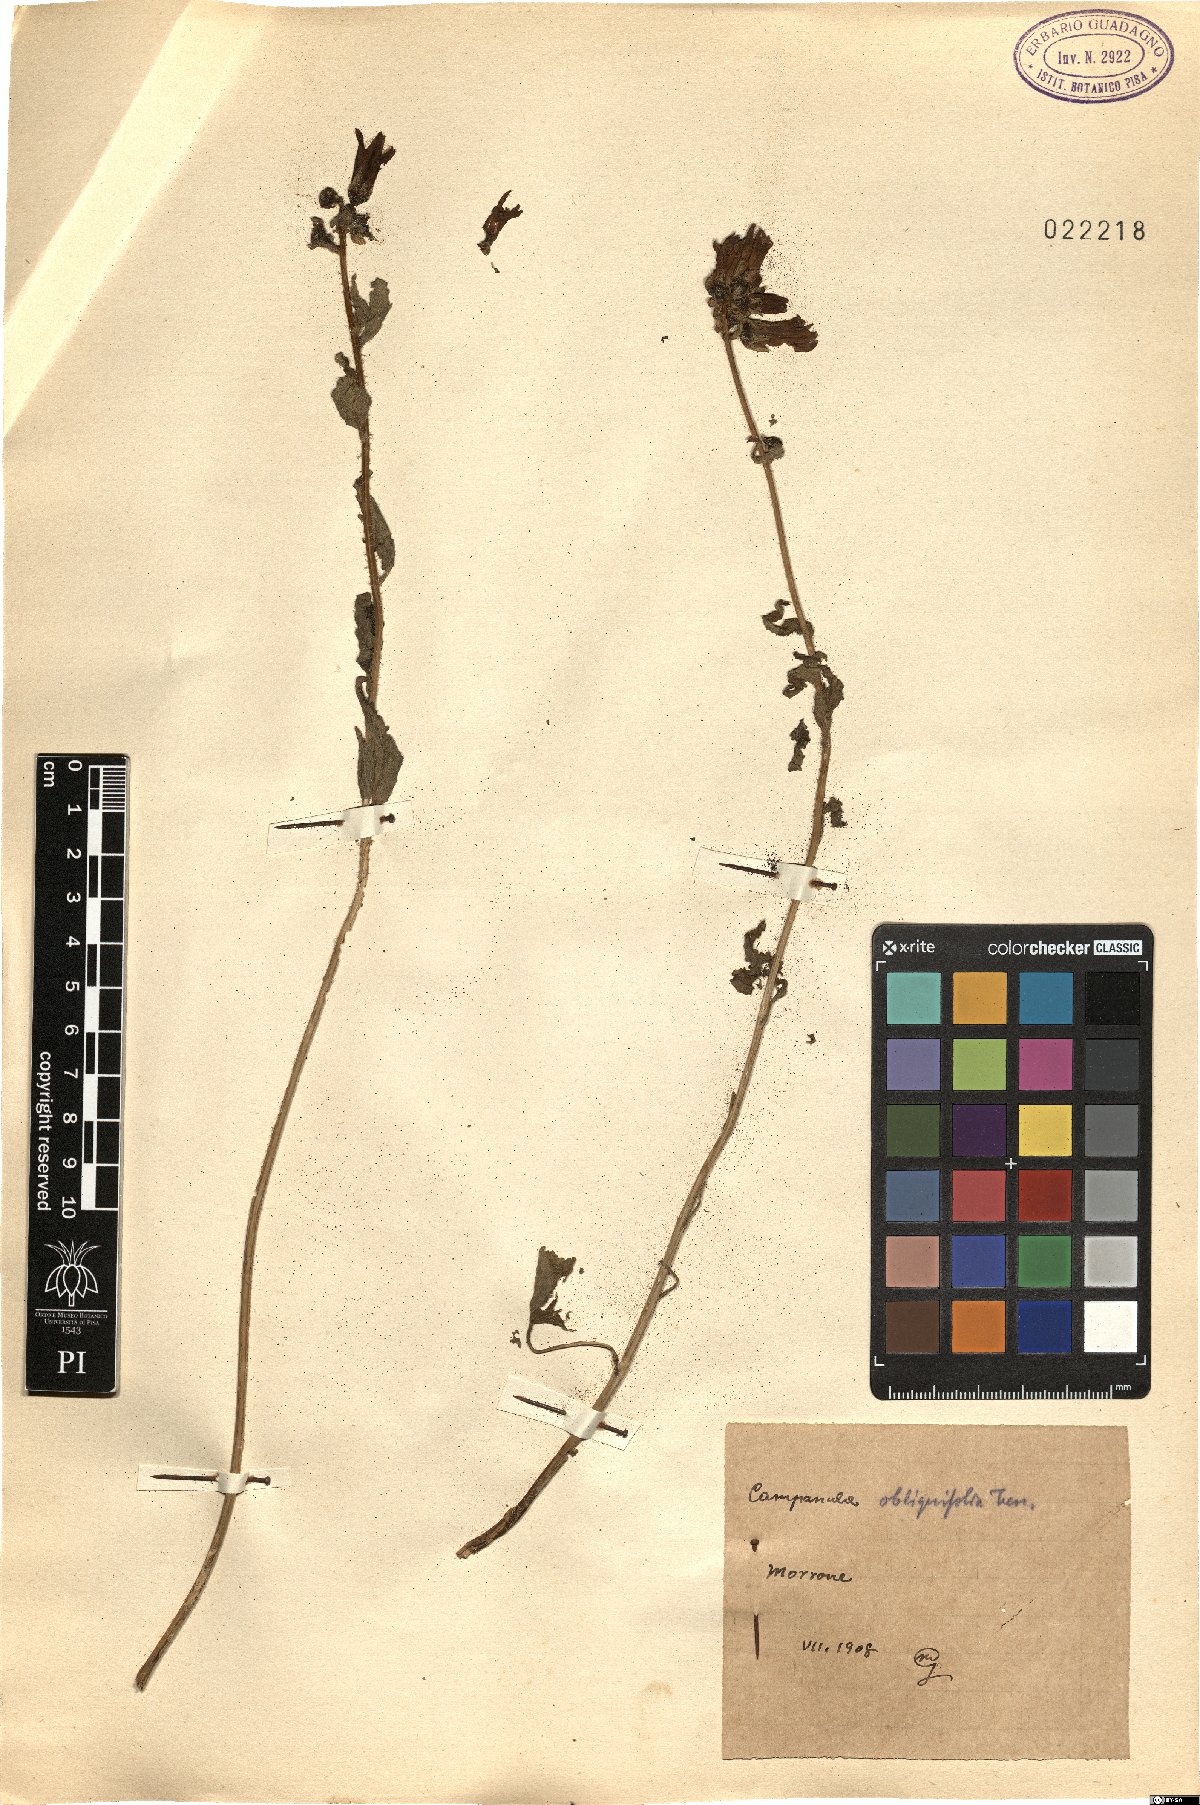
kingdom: Plantae
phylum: Tracheophyta
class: Magnoliopsida
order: Asterales
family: Campanulaceae
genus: Campanula
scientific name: Campanula bononiensis
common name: Pale bellflower
